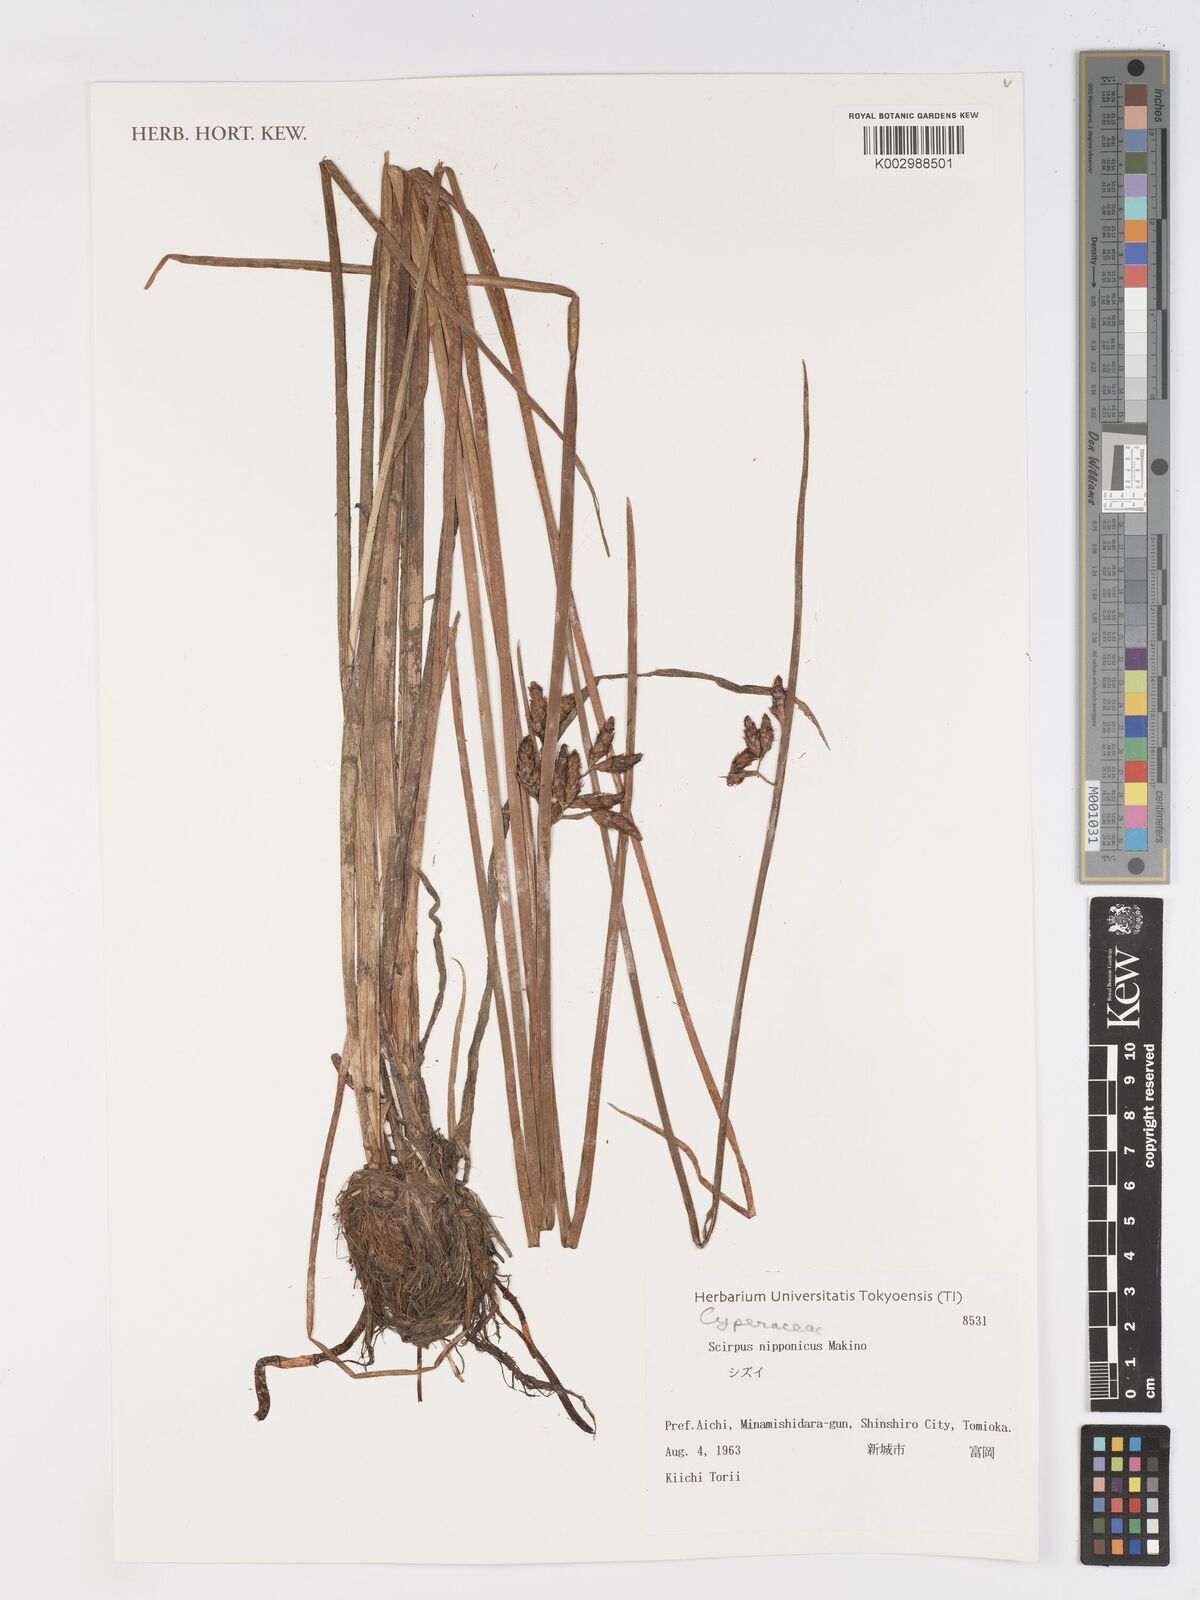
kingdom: Plantae
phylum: Tracheophyta
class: Liliopsida
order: Poales
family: Cyperaceae
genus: Schoenoplectus
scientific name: Schoenoplectus nipponicus
